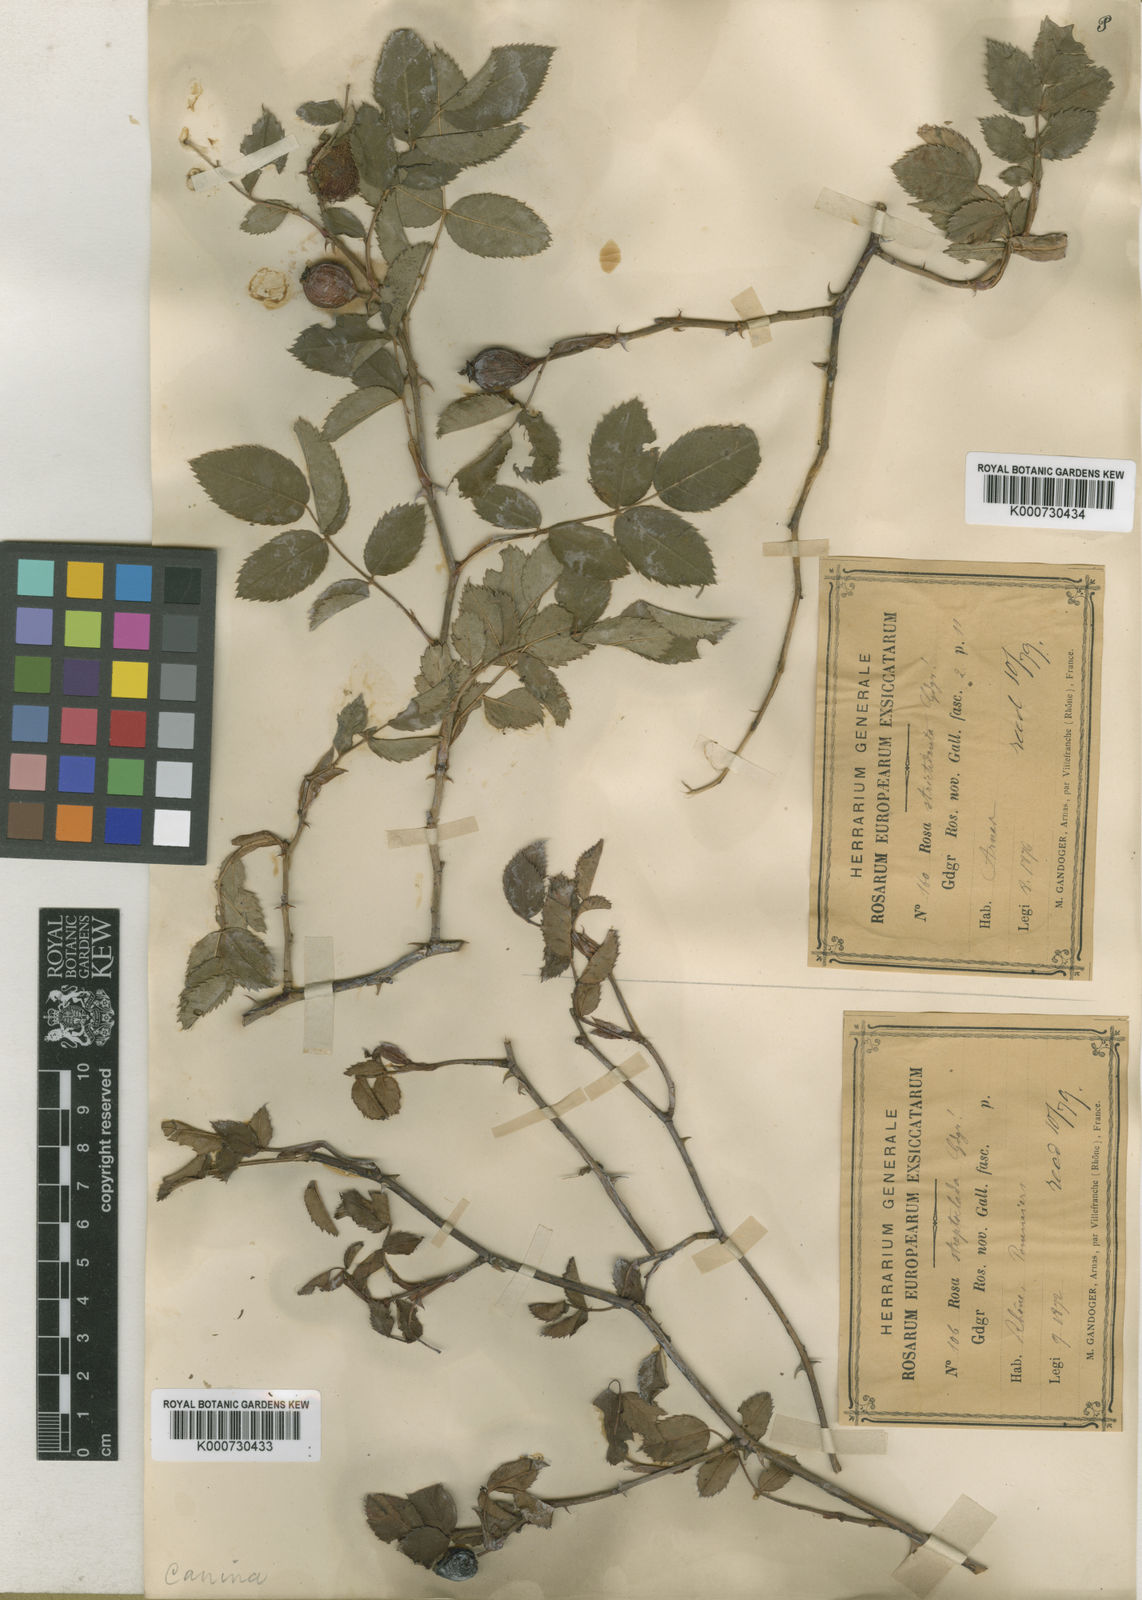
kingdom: Plantae
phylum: Tracheophyta
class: Magnoliopsida
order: Rosales
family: Rosaceae
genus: Rosa
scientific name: Rosa canina
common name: Dog rose
